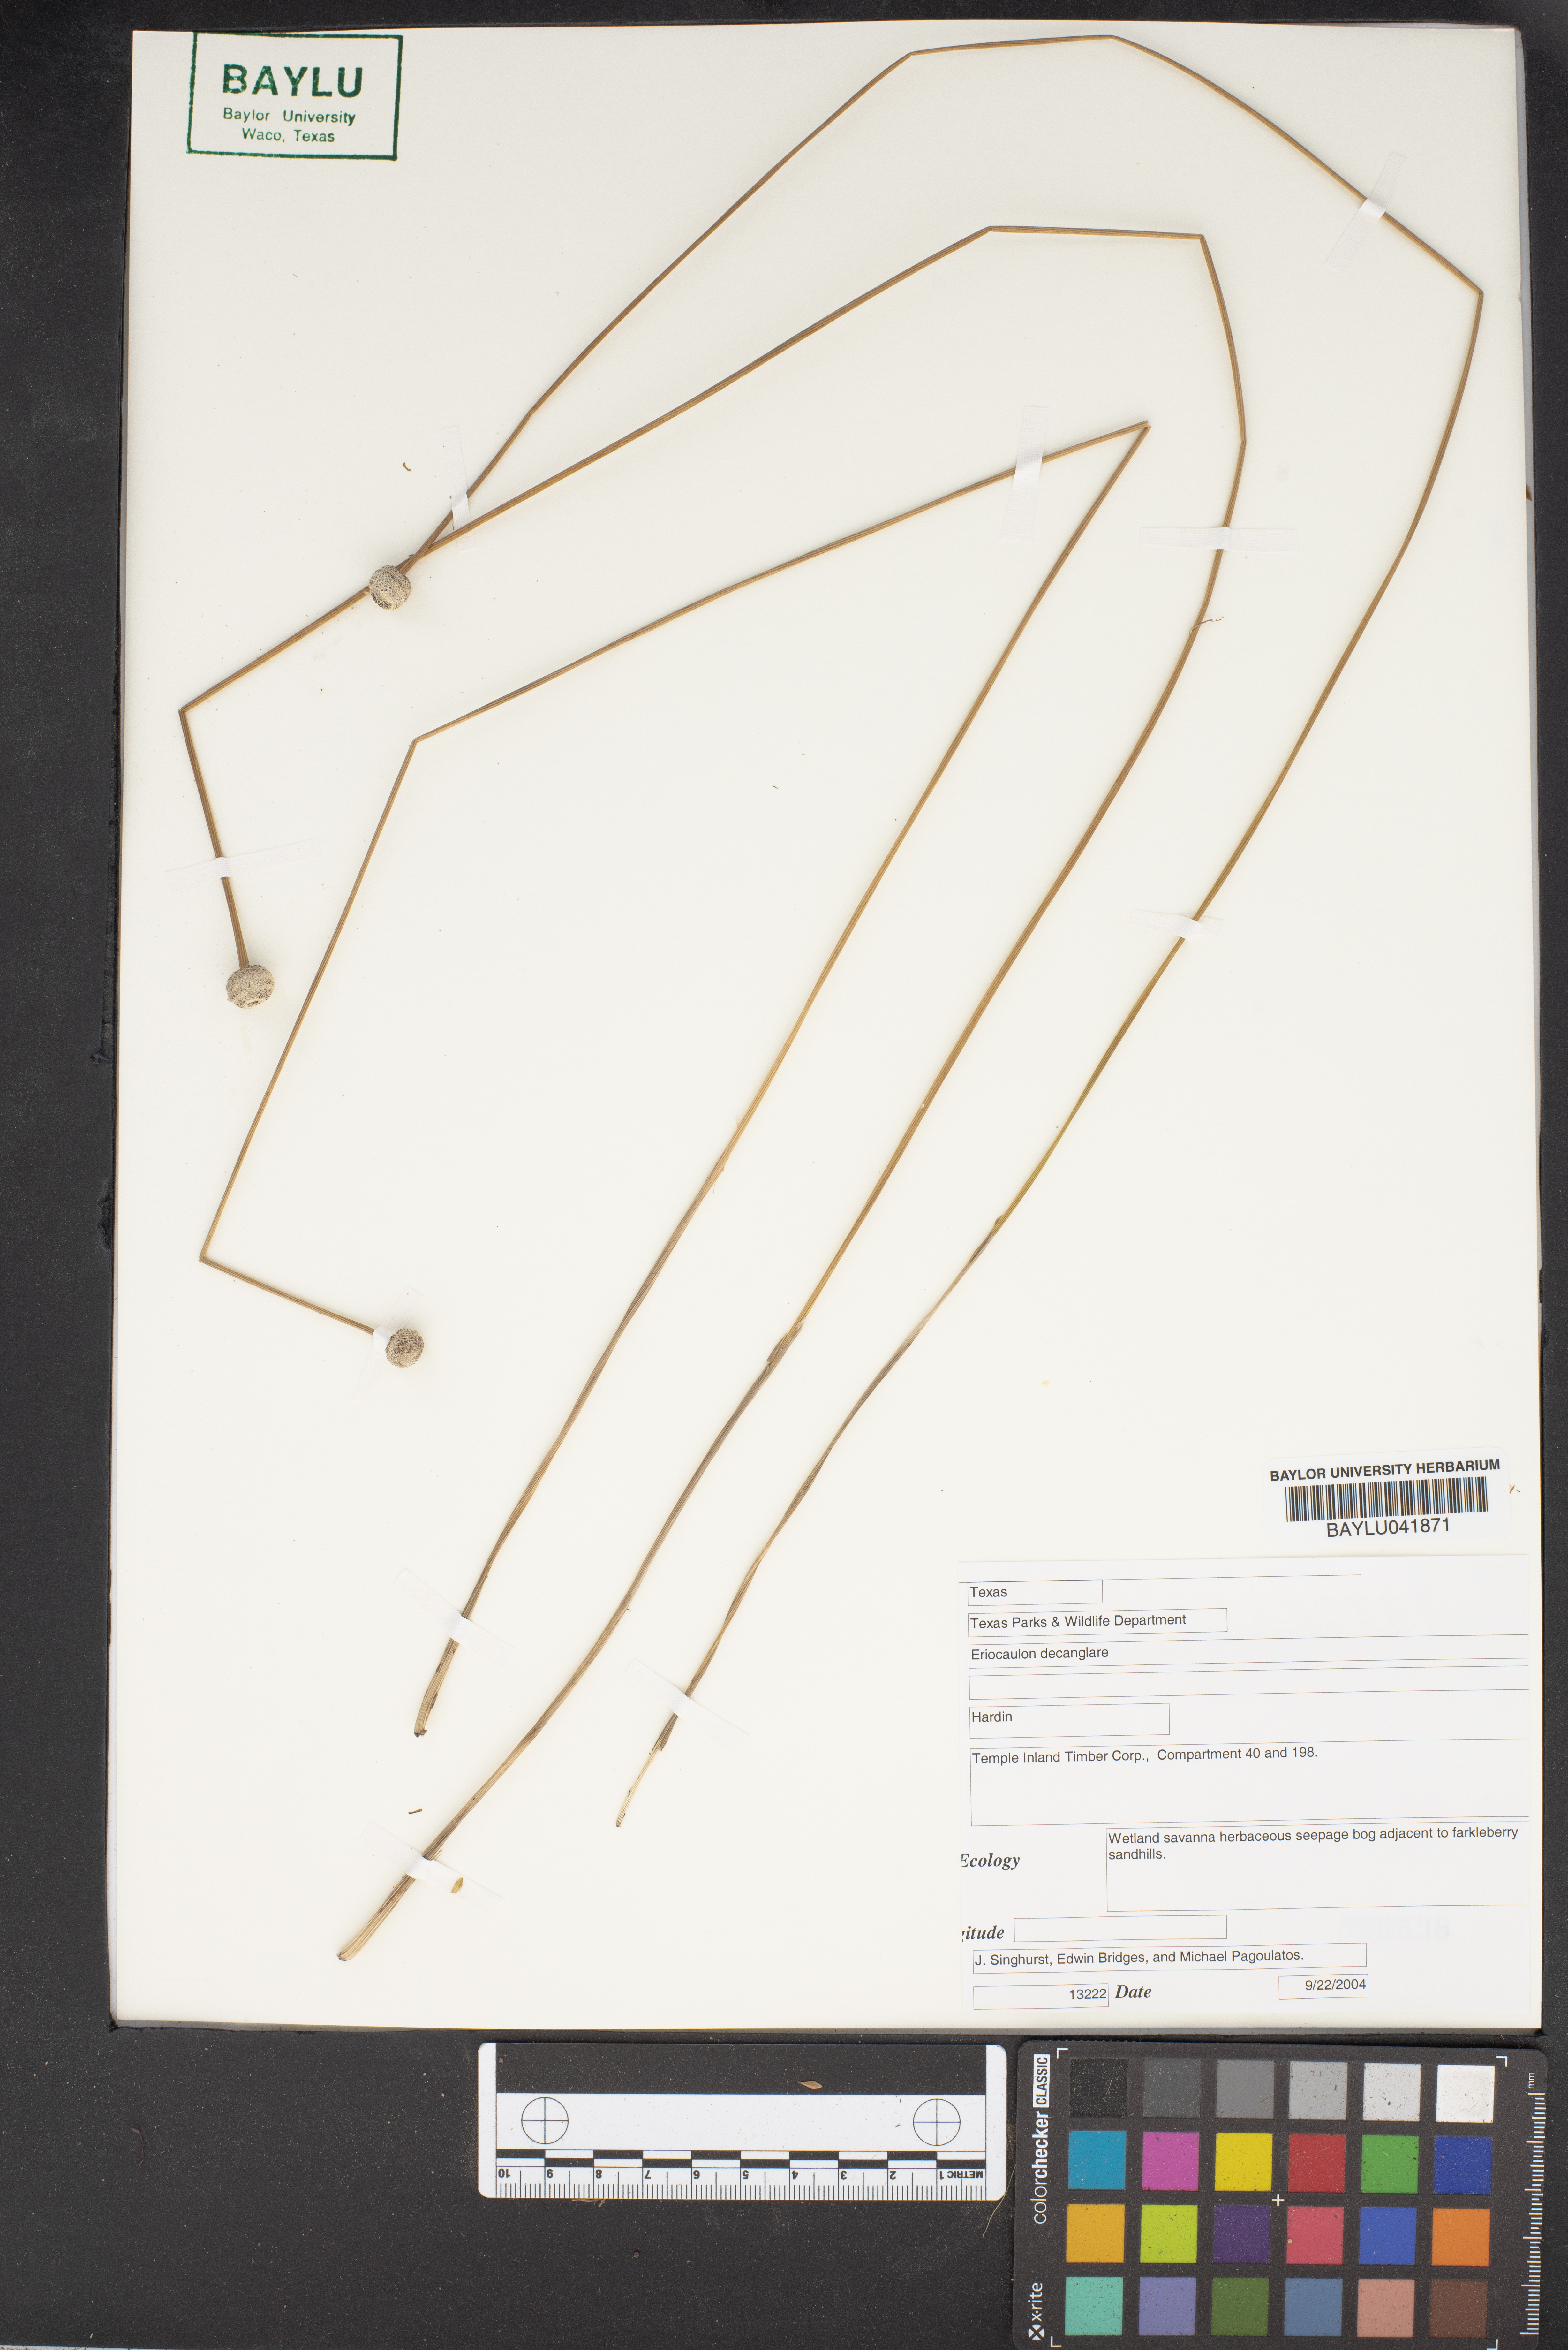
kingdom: Plantae
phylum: Tracheophyta
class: Liliopsida
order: Poales
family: Eriocaulaceae
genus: Eriocaulon
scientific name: Eriocaulon decangulare
